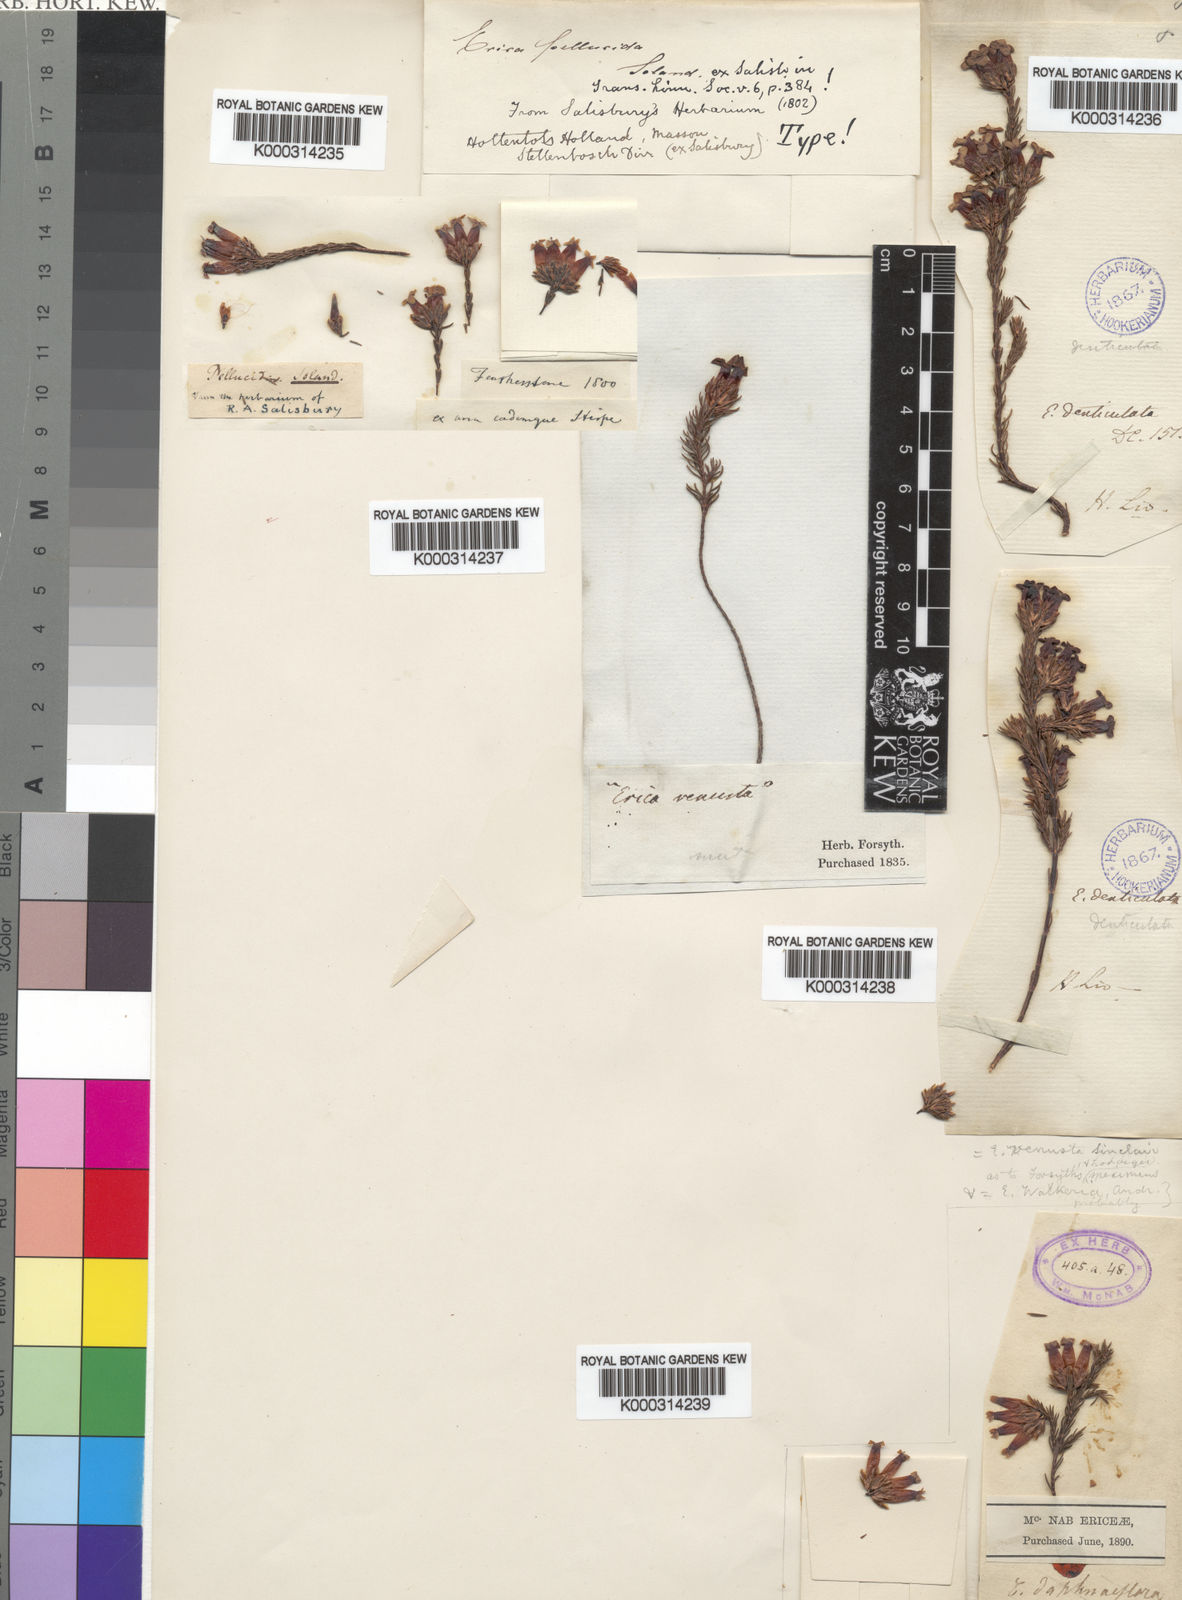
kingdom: Plantae
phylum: Tracheophyta
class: Magnoliopsida
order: Ericales
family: Ericaceae
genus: Erica
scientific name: Erica pellucida
